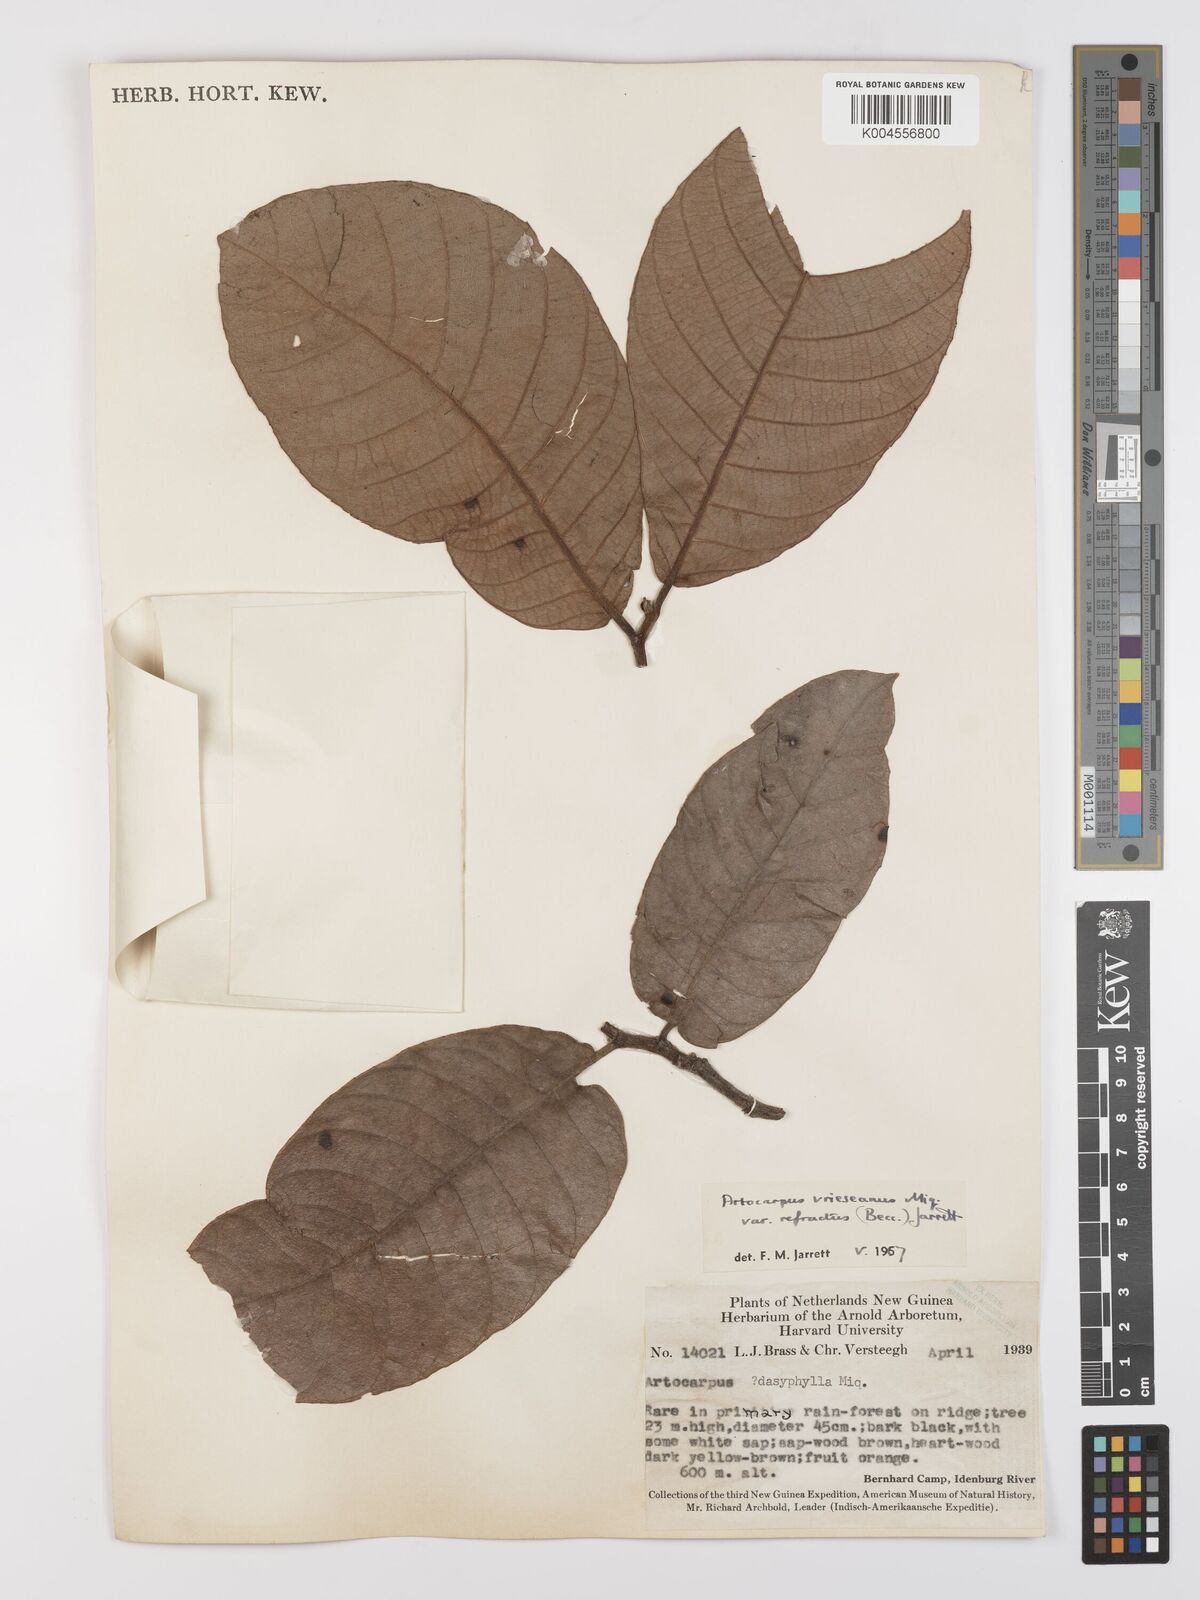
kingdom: Plantae
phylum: Tracheophyta
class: Magnoliopsida
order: Rosales
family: Moraceae
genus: Artocarpus
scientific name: Artocarpus vrieseanus
